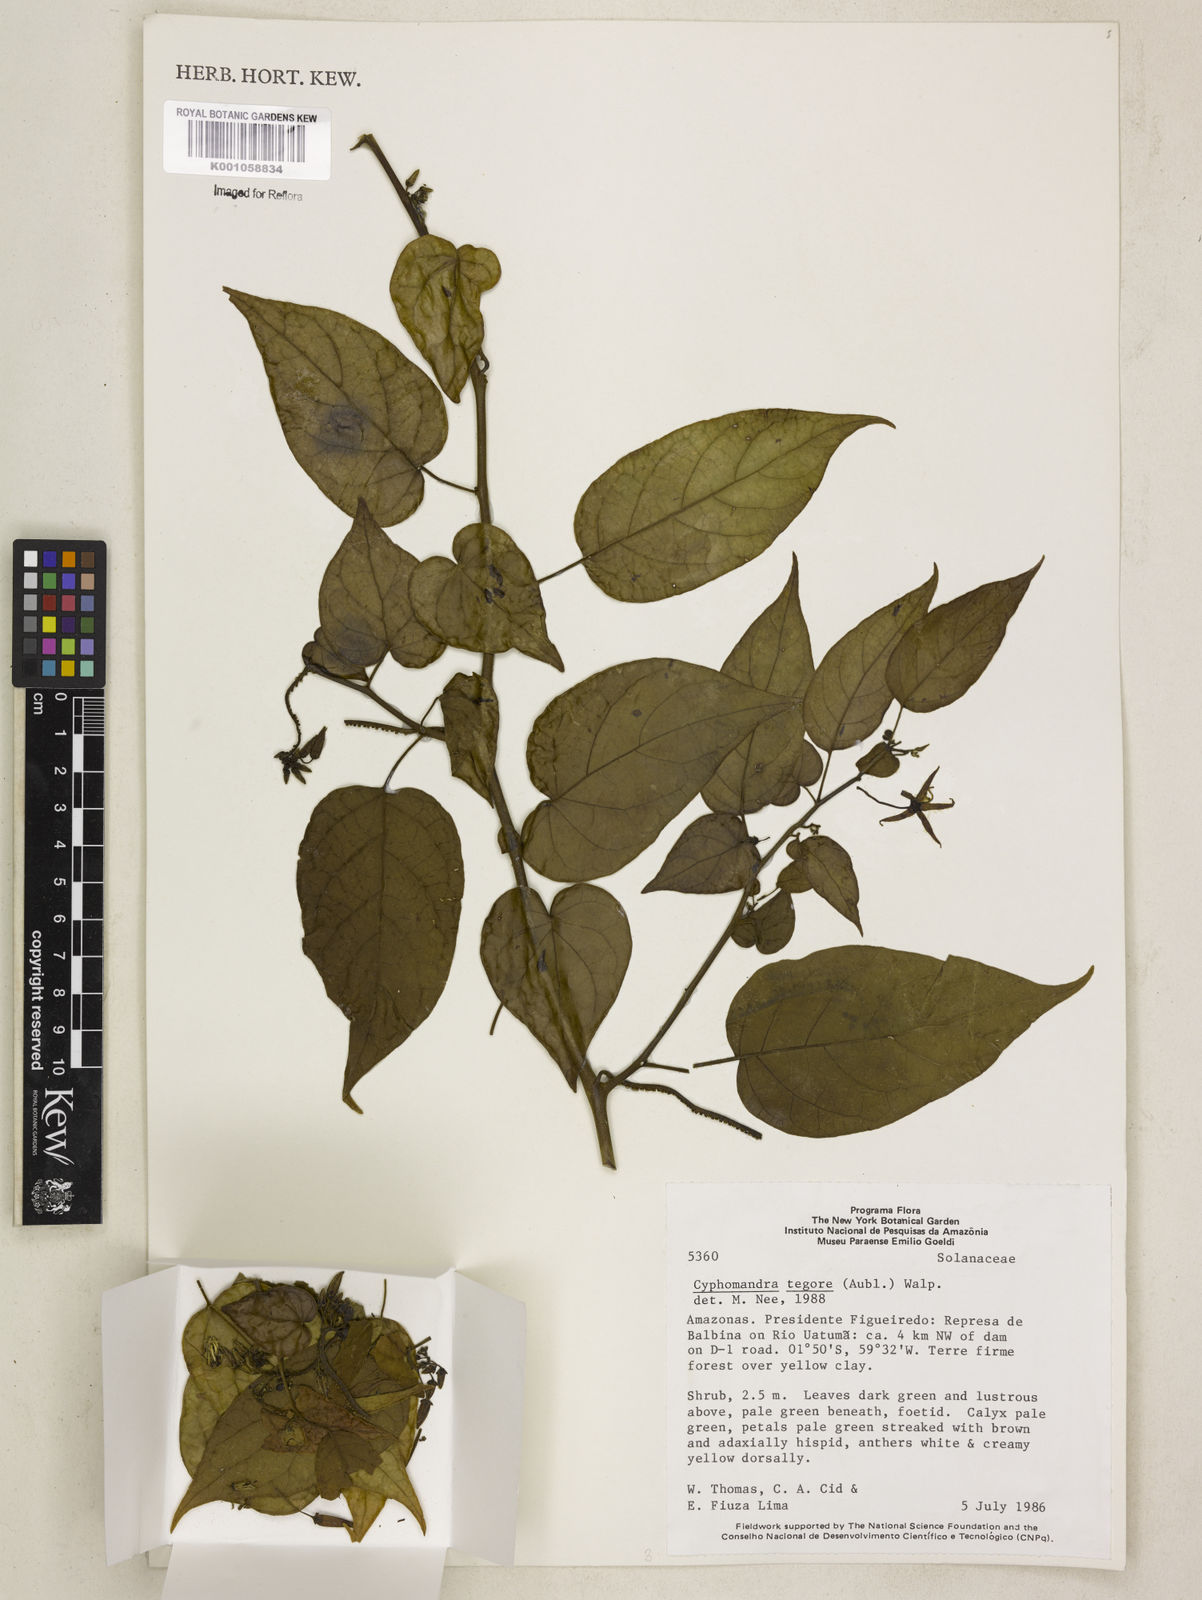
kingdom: Plantae
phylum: Tracheophyta
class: Magnoliopsida
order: Solanales
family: Solanaceae
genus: Solanum
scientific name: Solanum tegore
